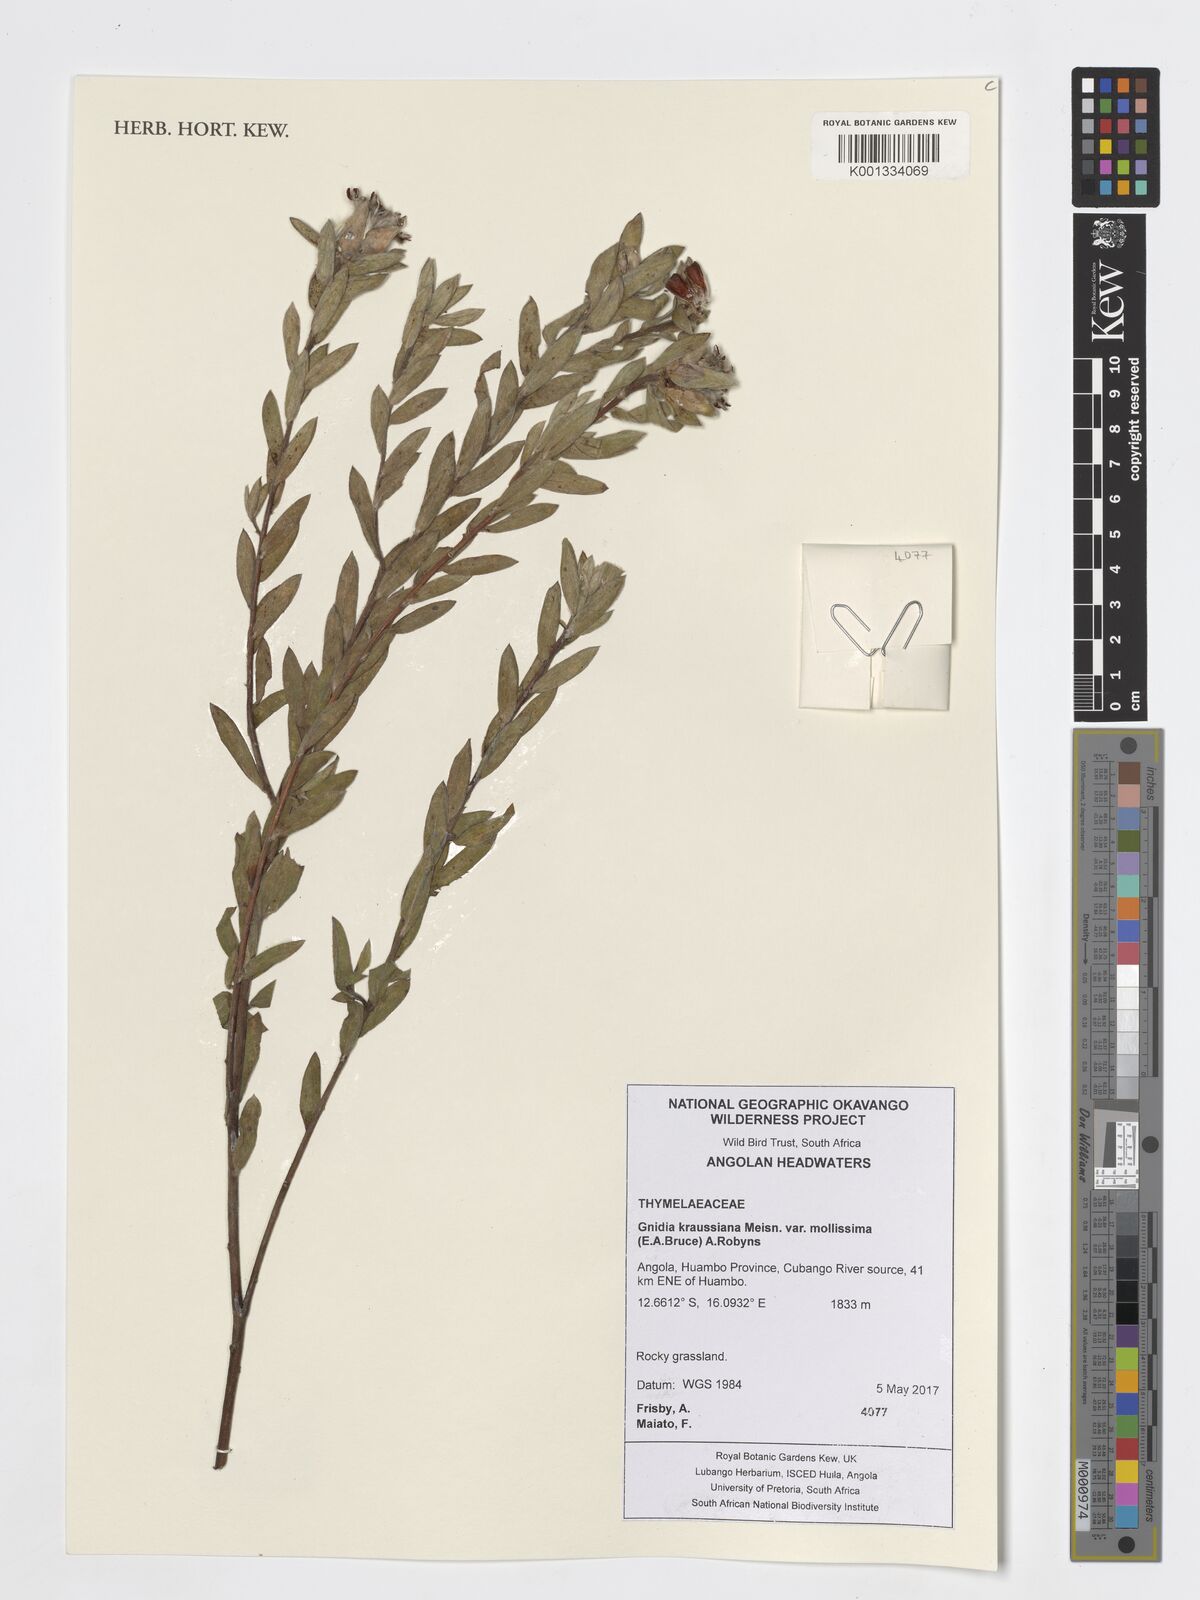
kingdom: Plantae
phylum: Tracheophyta
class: Magnoliopsida
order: Malvales
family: Thymelaeaceae
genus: Gnidia
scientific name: Gnidia kraussiana
